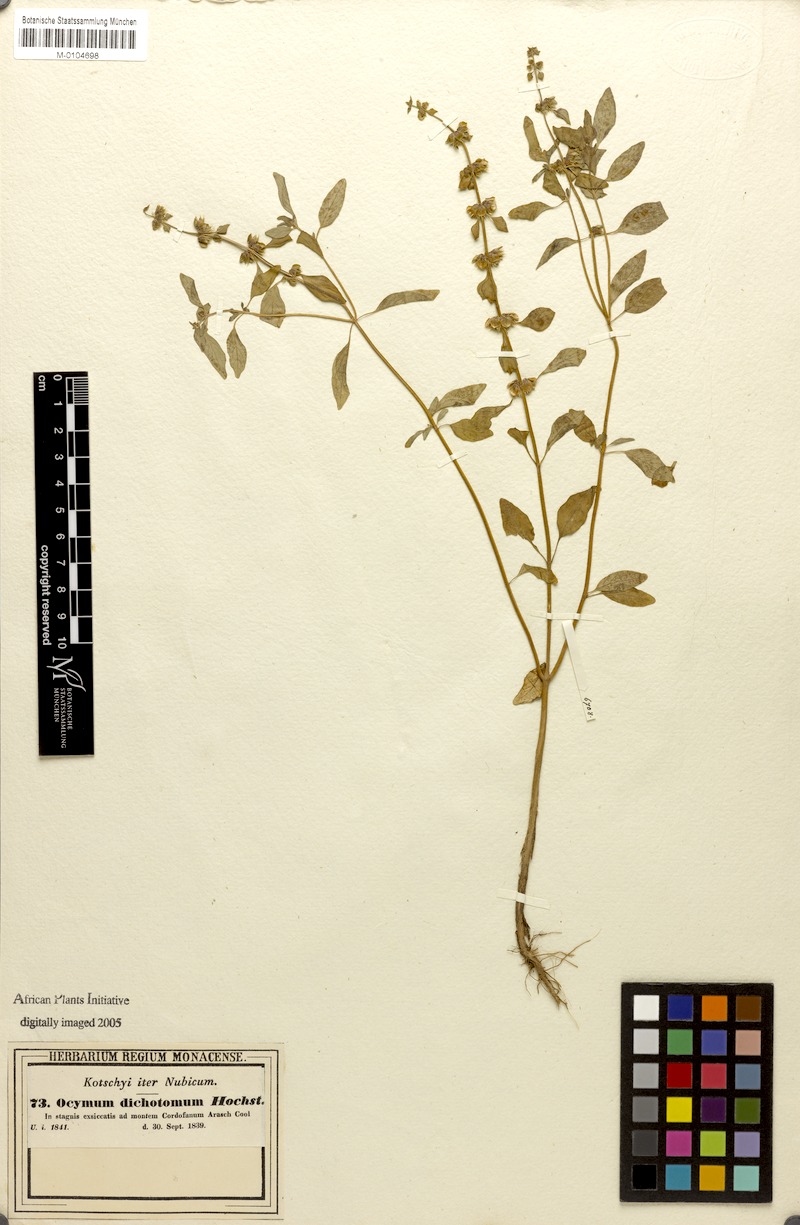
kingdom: Plantae
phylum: Tracheophyta
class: Magnoliopsida
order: Lamiales
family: Lamiaceae
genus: Ocimum
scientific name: Ocimum americanum
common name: American basil
